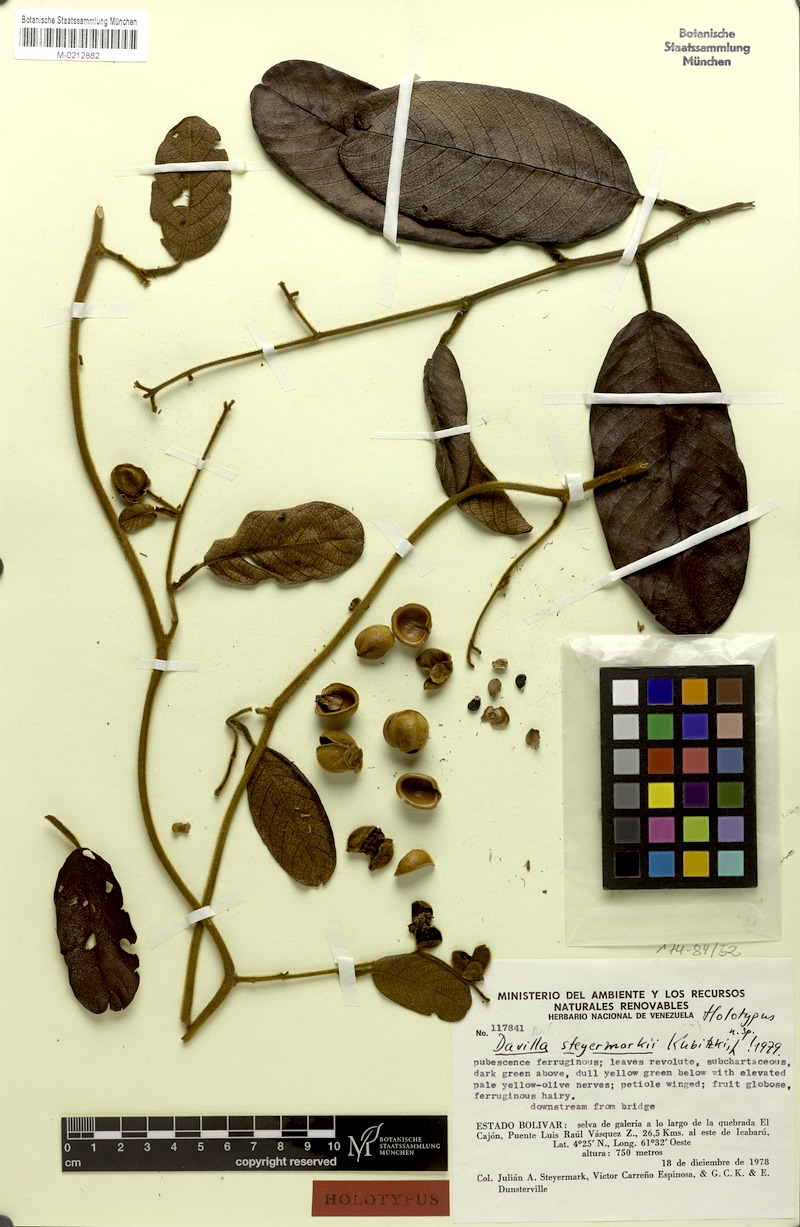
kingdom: Plantae
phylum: Tracheophyta
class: Magnoliopsida
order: Dilleniales
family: Dilleniaceae
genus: Davilla
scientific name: Davilla steyermarkii
